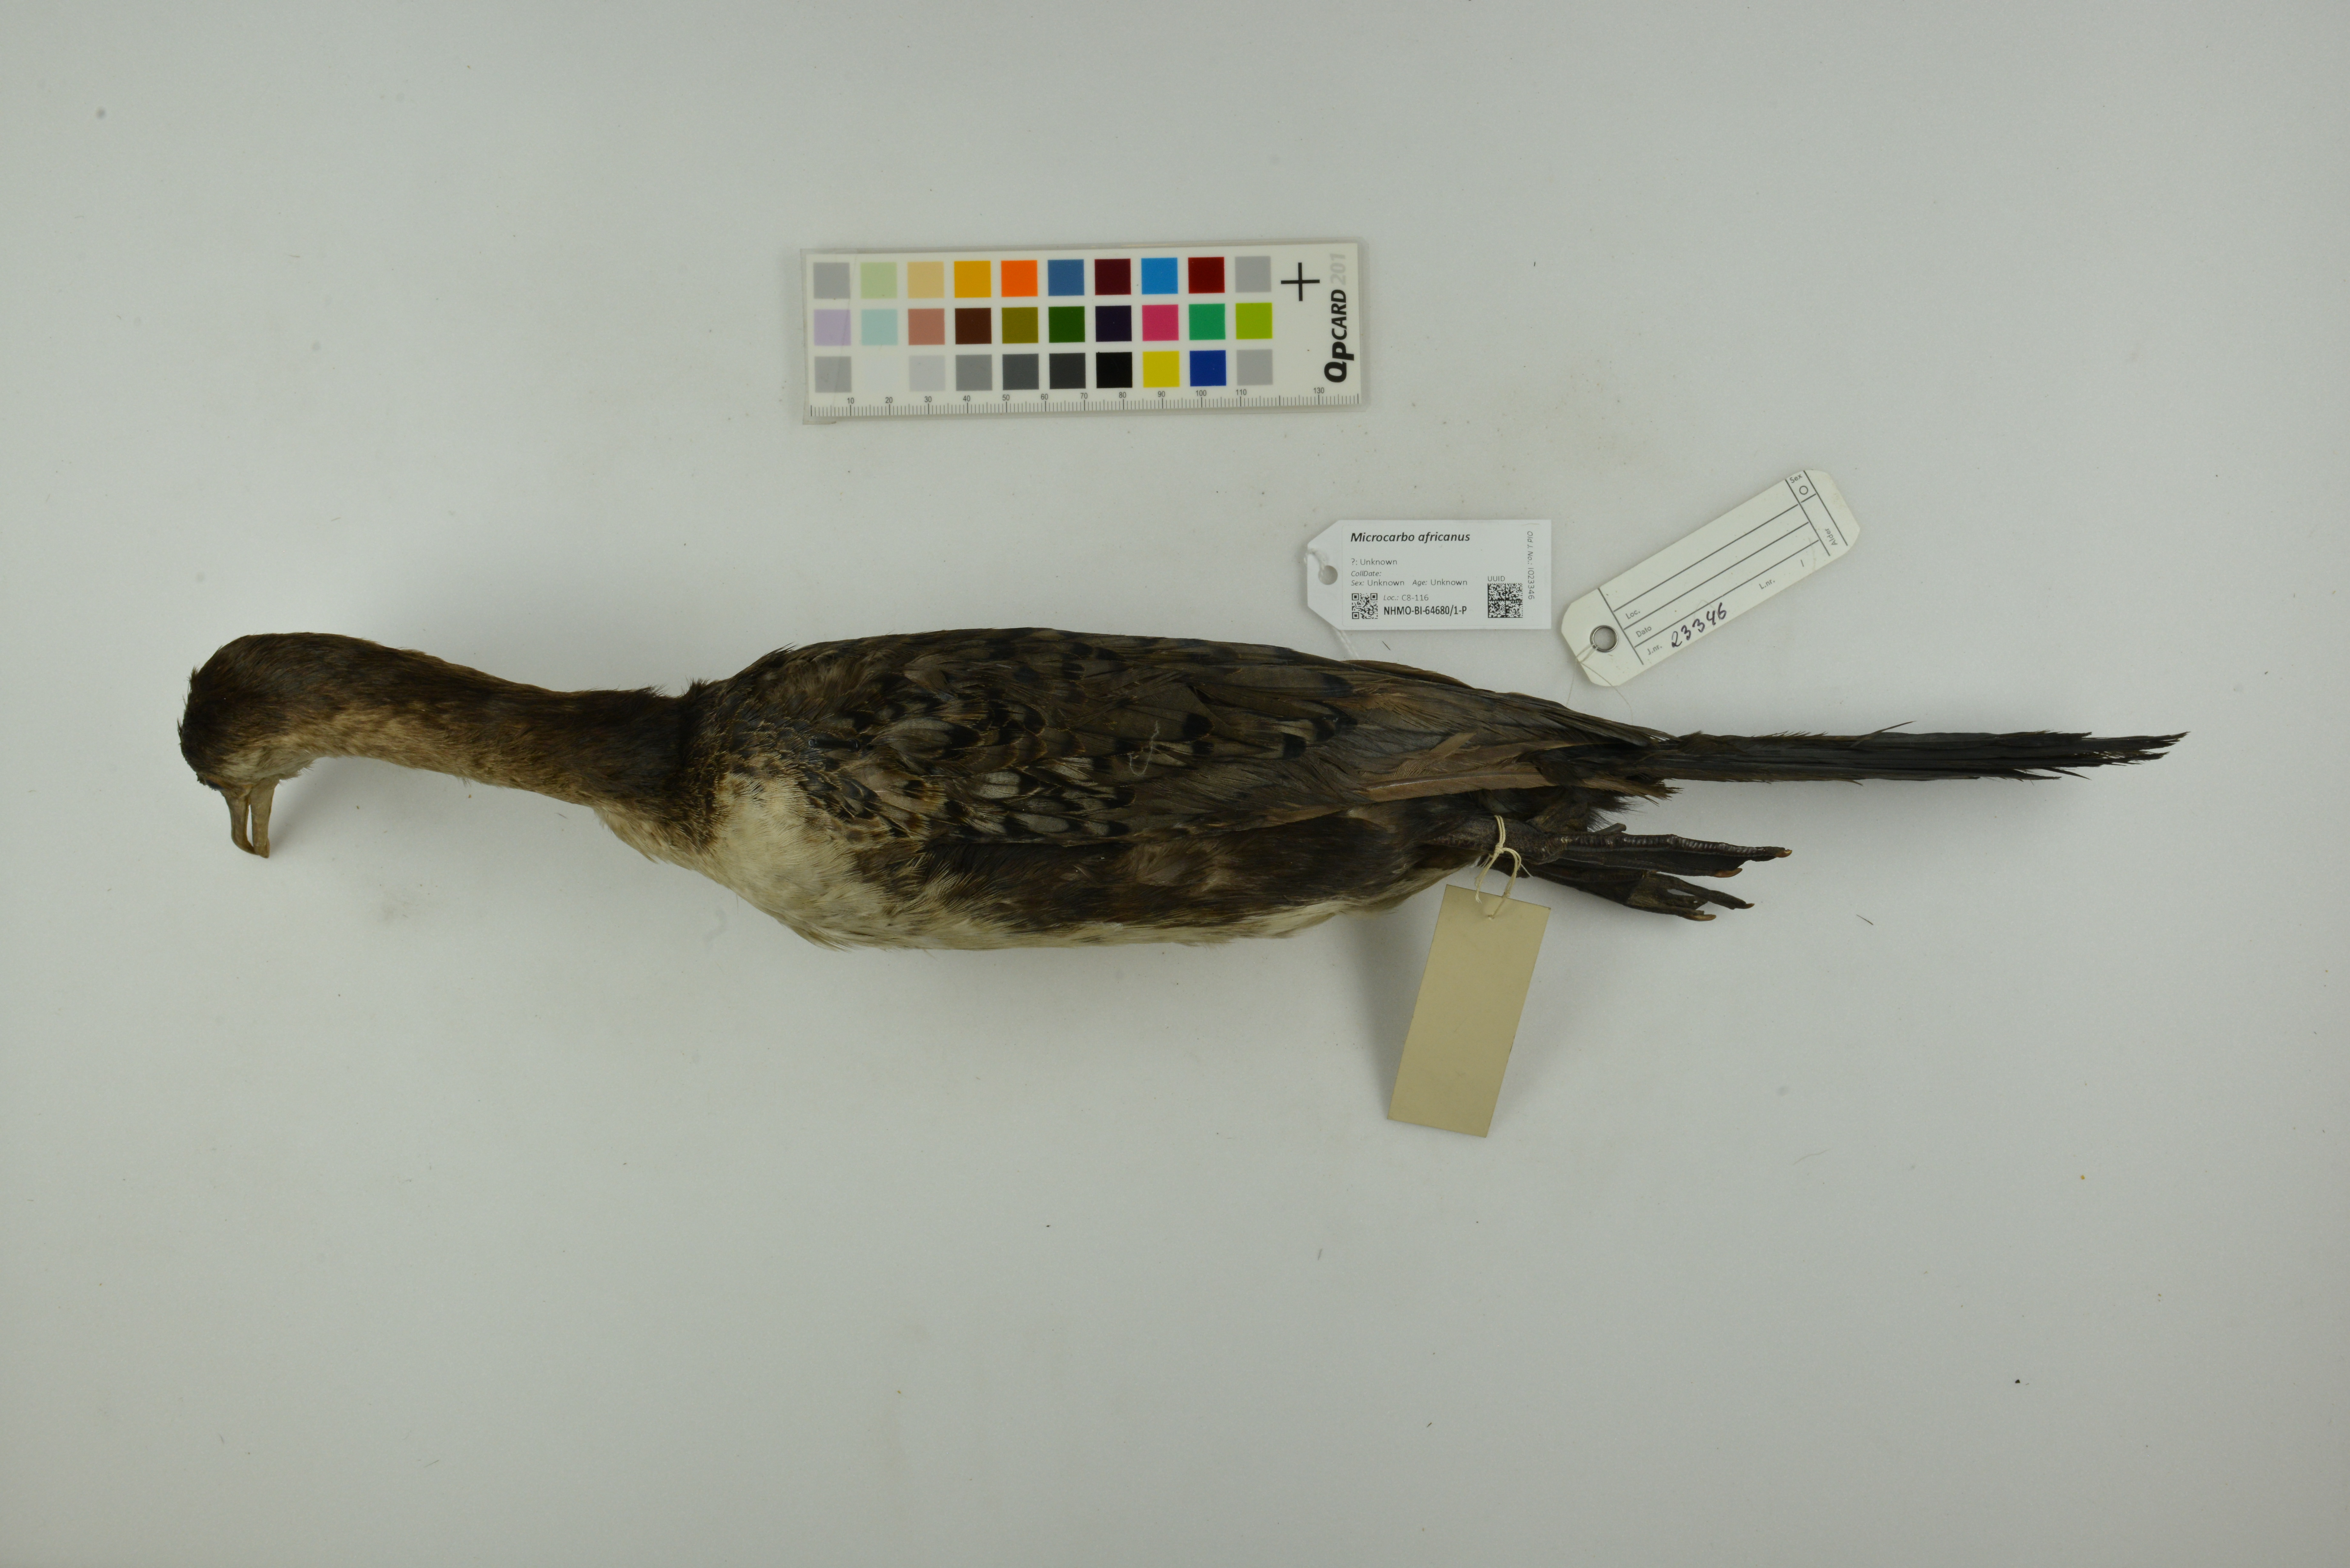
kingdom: Animalia
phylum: Chordata
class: Aves
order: Suliformes
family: Phalacrocoracidae
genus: Microcarbo
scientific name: Microcarbo africanus
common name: Long-tailed cormorant
